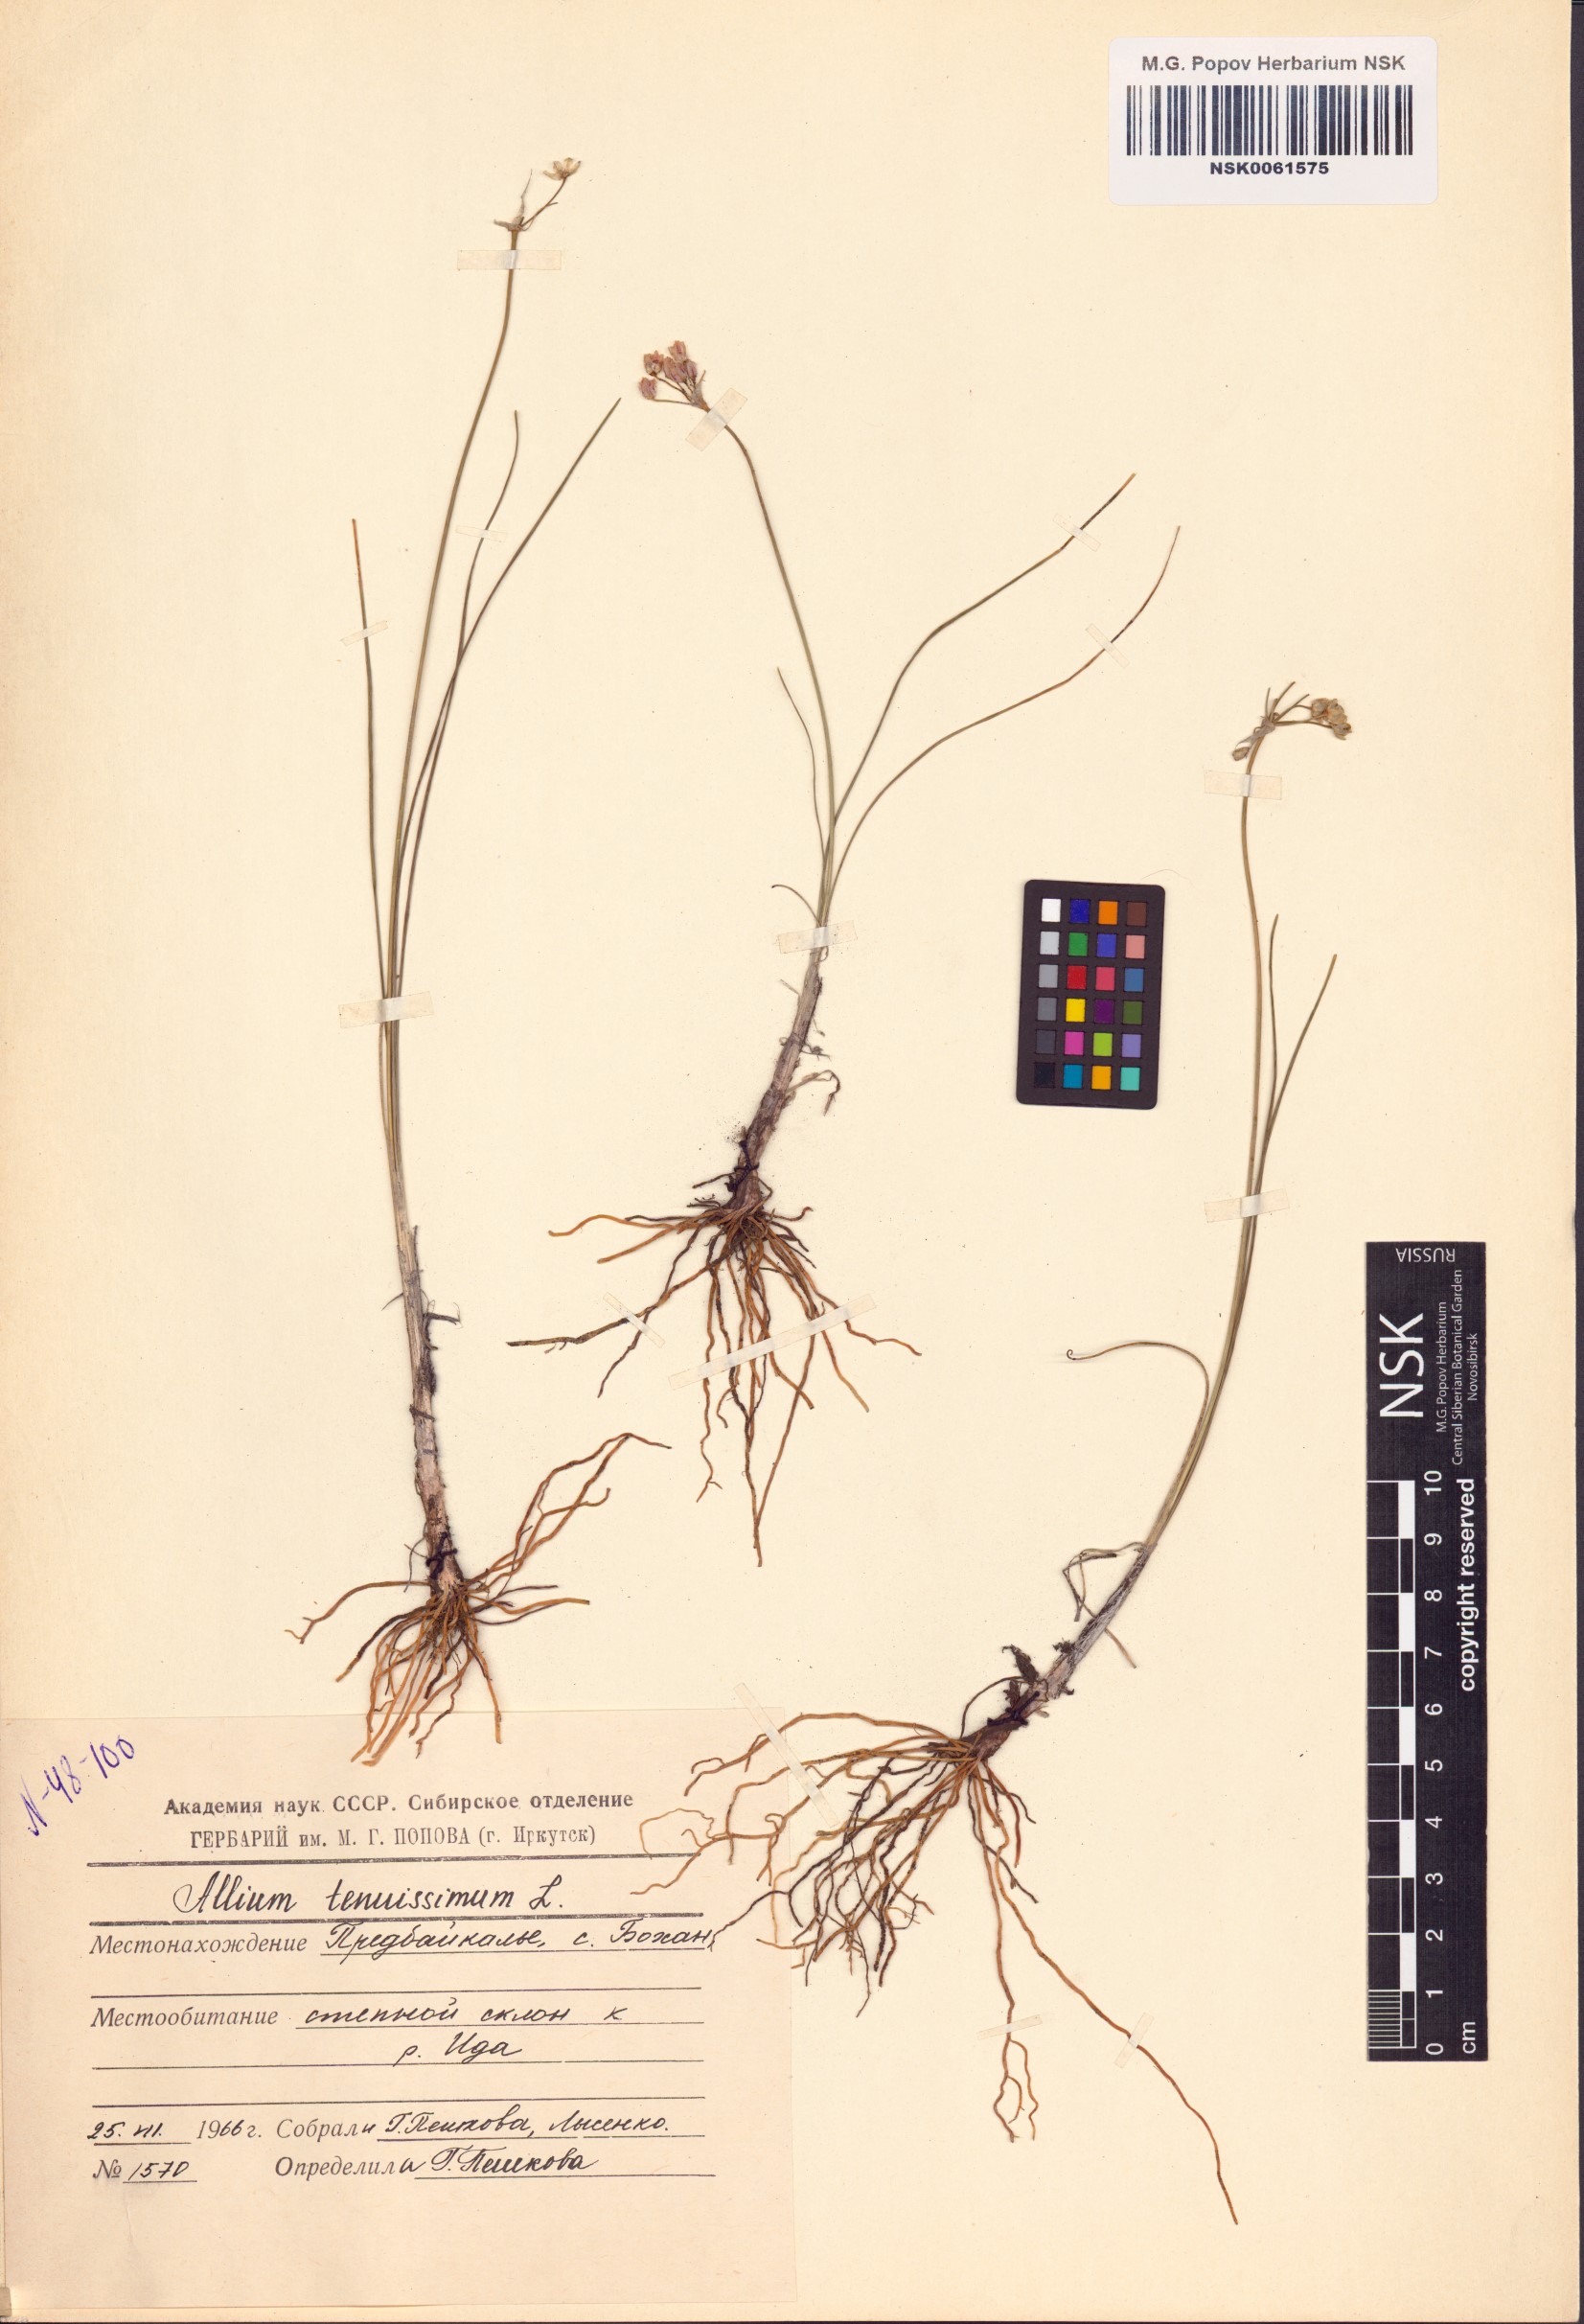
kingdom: Plantae
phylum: Tracheophyta
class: Liliopsida
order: Asparagales
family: Amaryllidaceae
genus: Allium
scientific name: Allium tenuissimum
